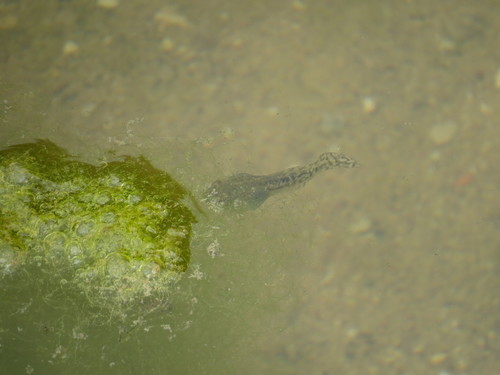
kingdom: Animalia
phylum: Chordata
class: Amphibia
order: Anura
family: Ranidae
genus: Pelophylax
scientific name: Pelophylax perezi
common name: Perez's frog
